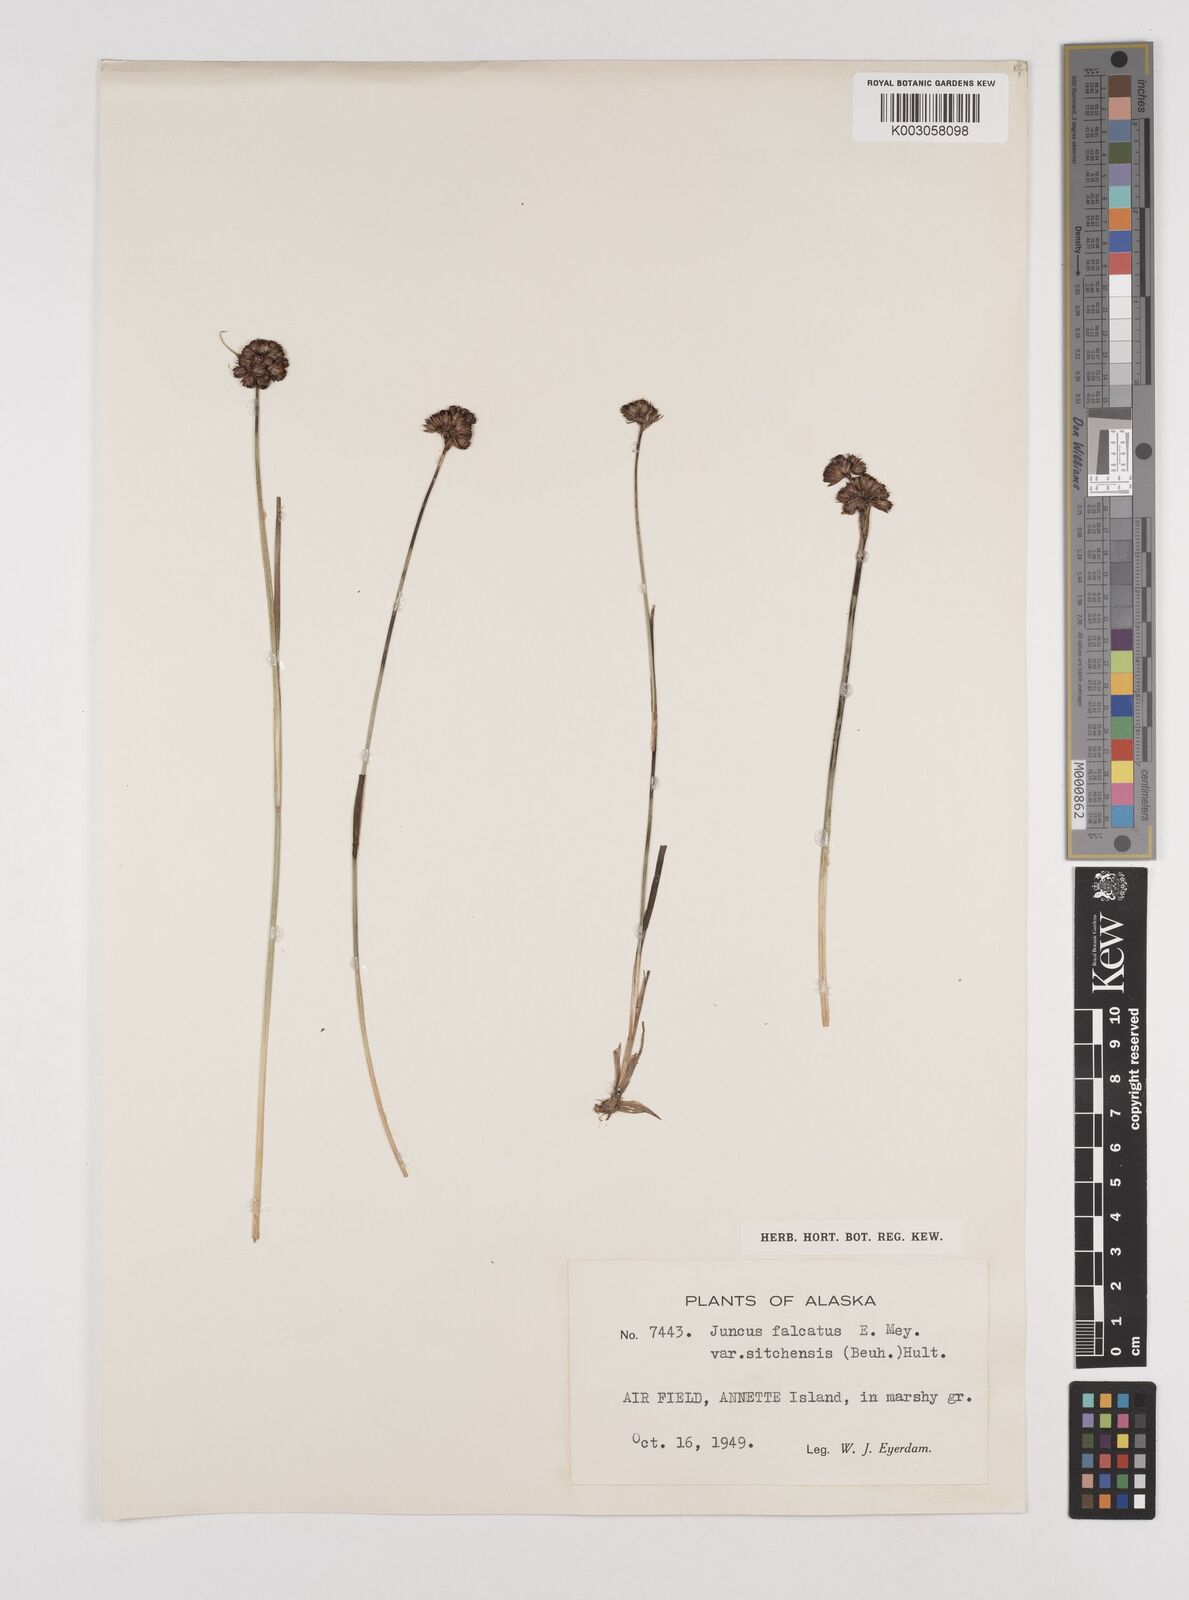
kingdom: Plantae
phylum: Tracheophyta
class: Liliopsida
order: Poales
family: Juncaceae
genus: Juncus
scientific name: Juncus falcatus
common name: Sickle-leaf rush
